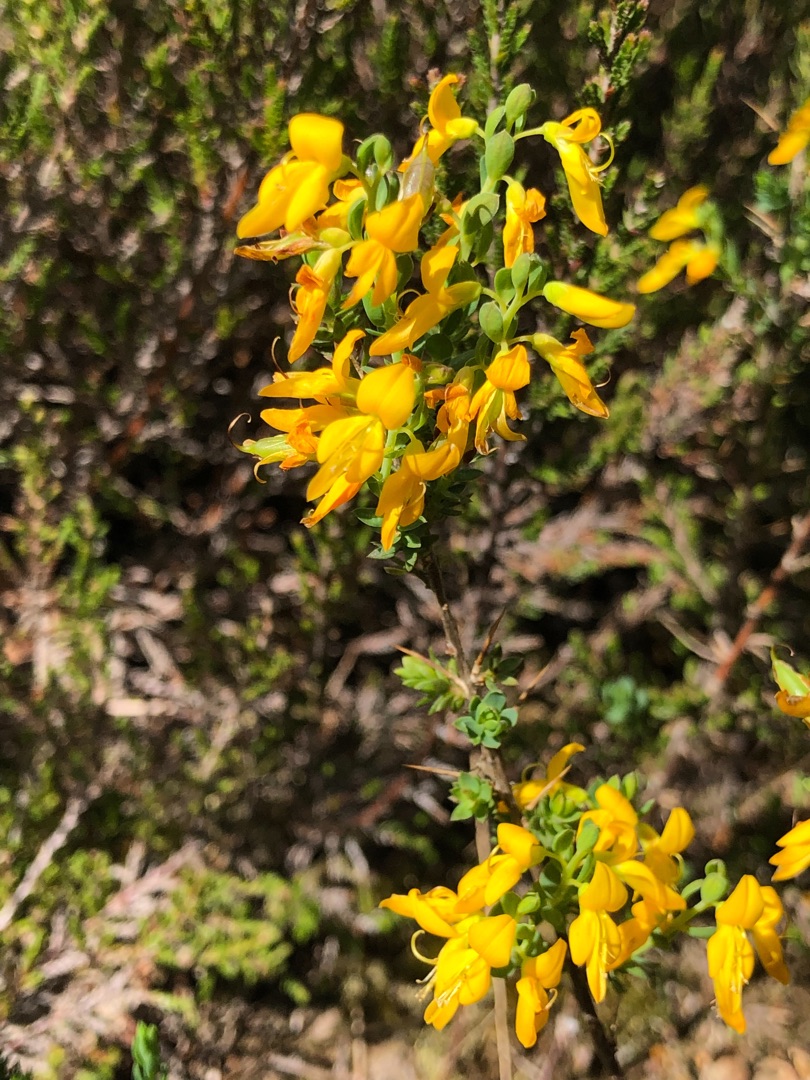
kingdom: Plantae
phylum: Tracheophyta
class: Magnoliopsida
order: Fabales
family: Fabaceae
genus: Genista
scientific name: Genista anglica
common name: Engelsk visse
